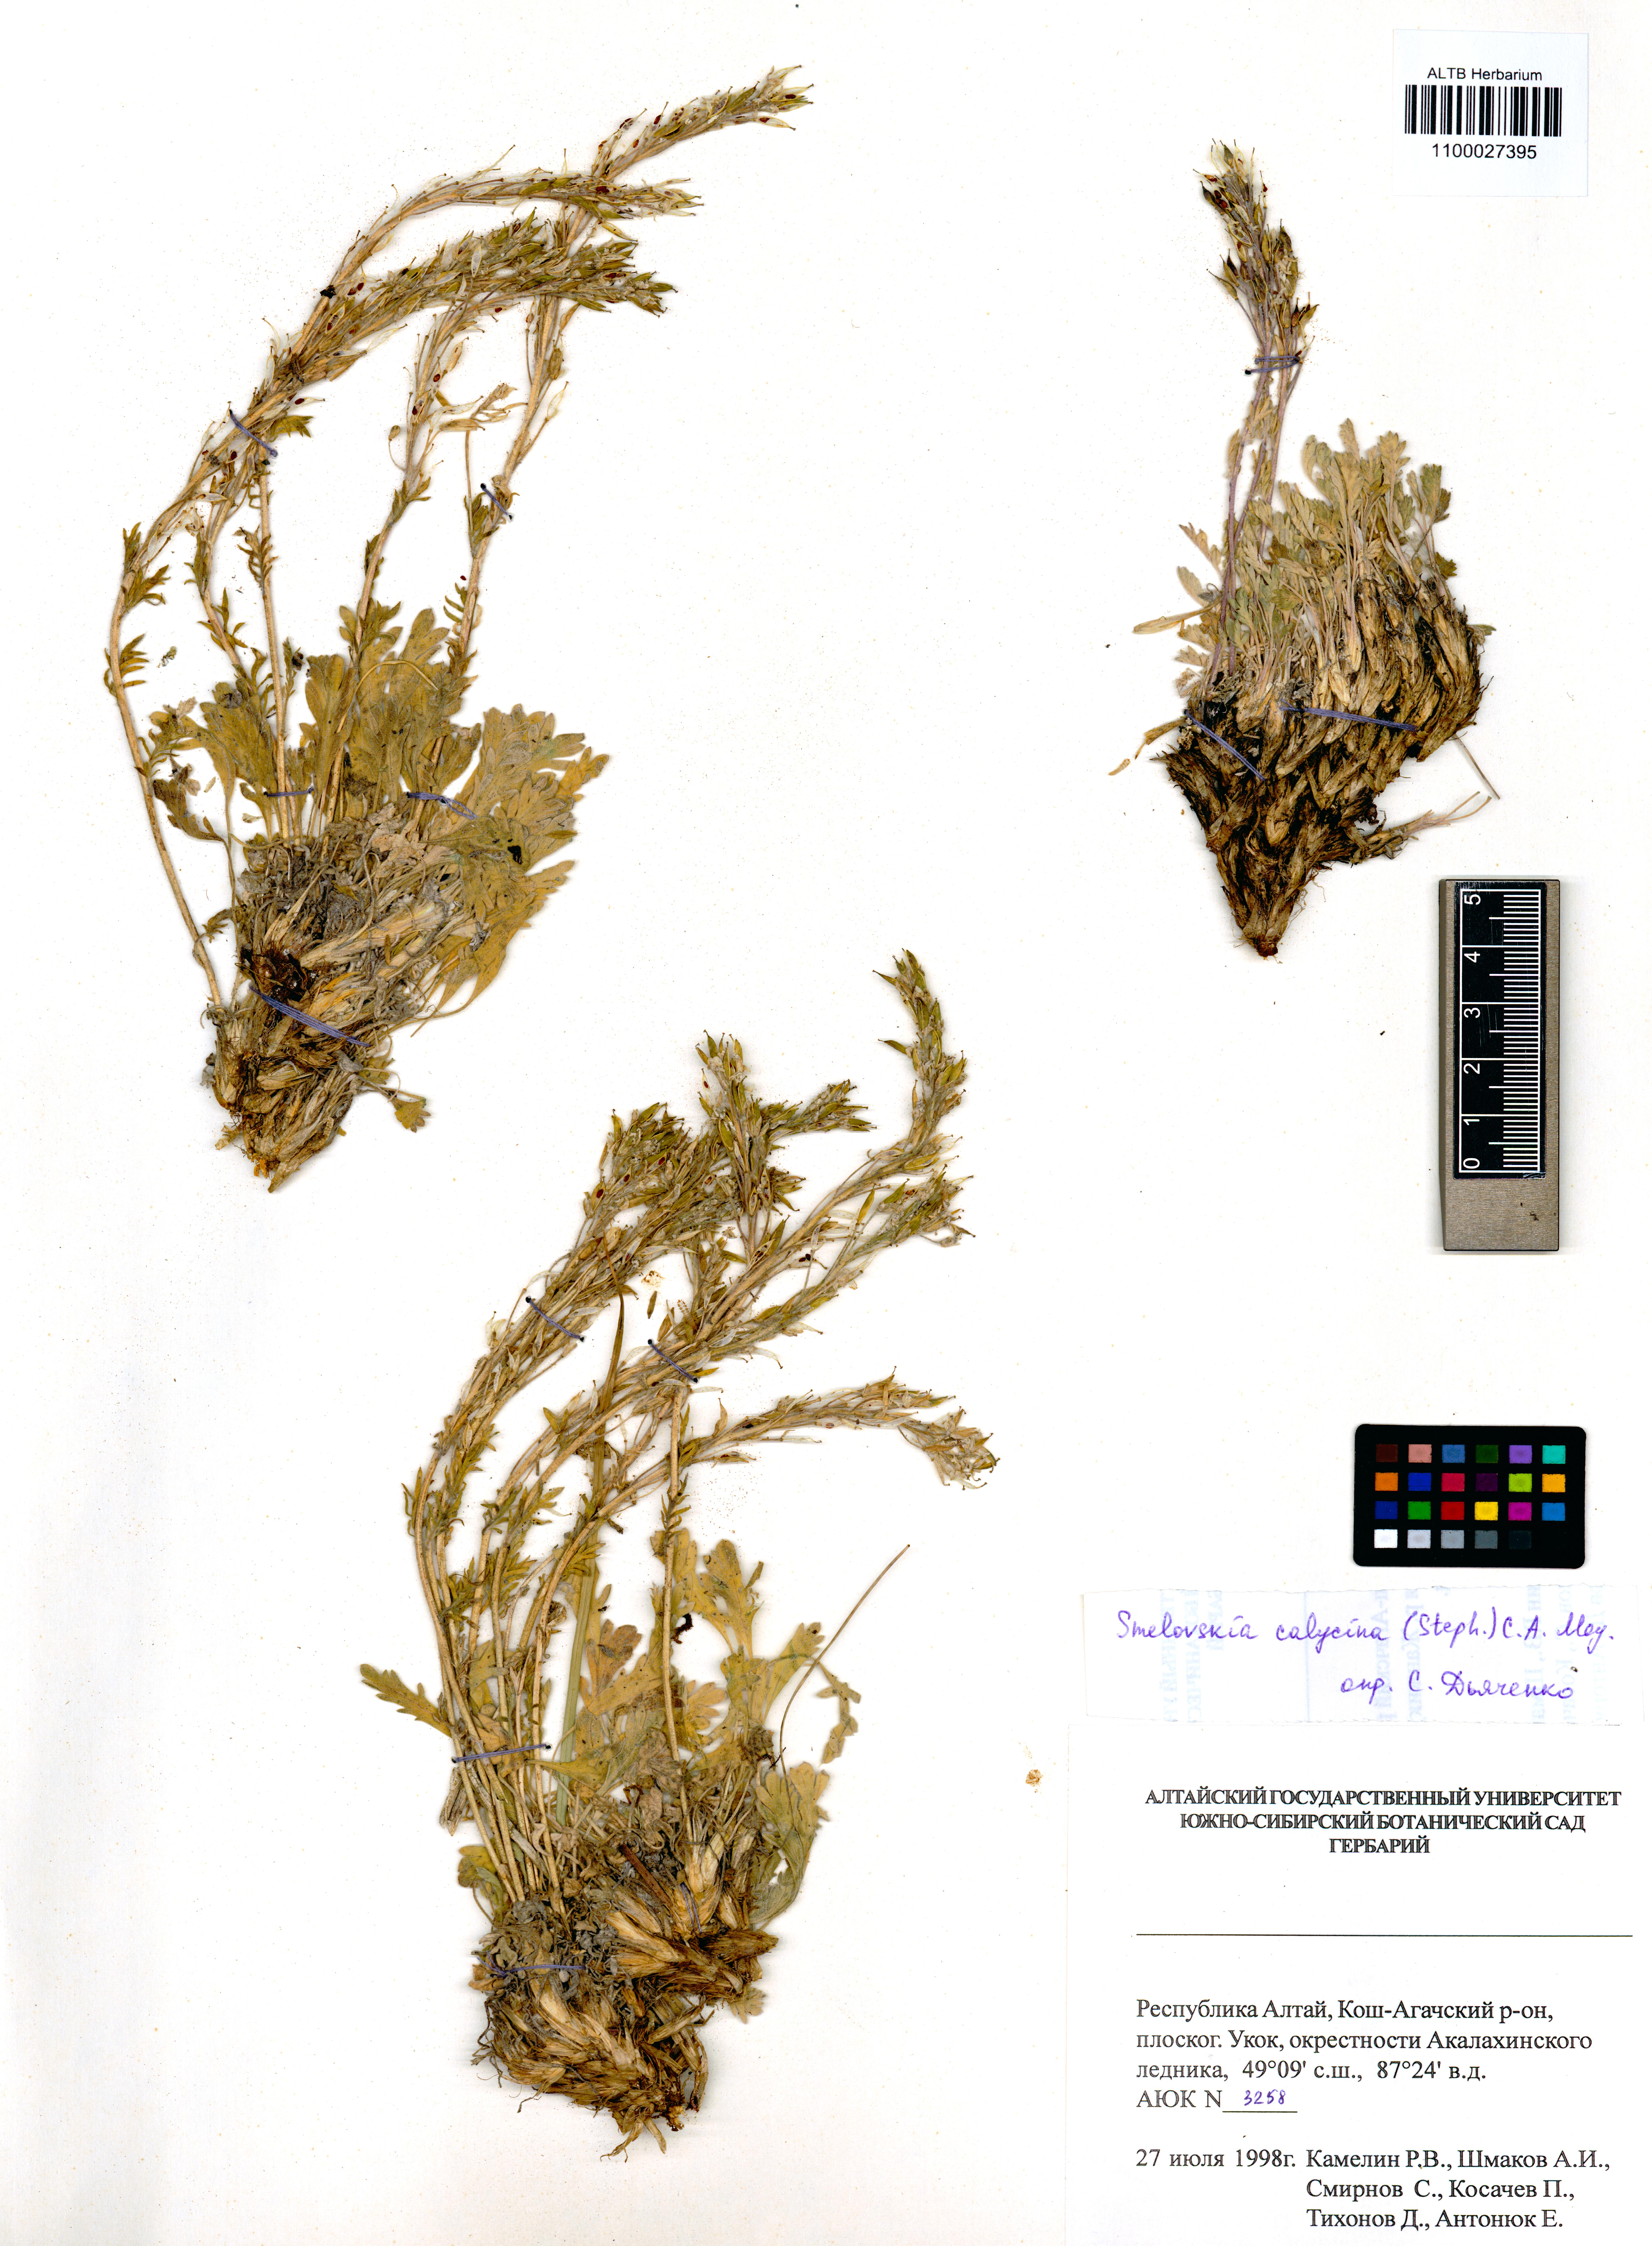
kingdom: Plantae
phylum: Tracheophyta
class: Magnoliopsida
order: Brassicales
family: Brassicaceae
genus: Smelowskia
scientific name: Smelowskia calycina
